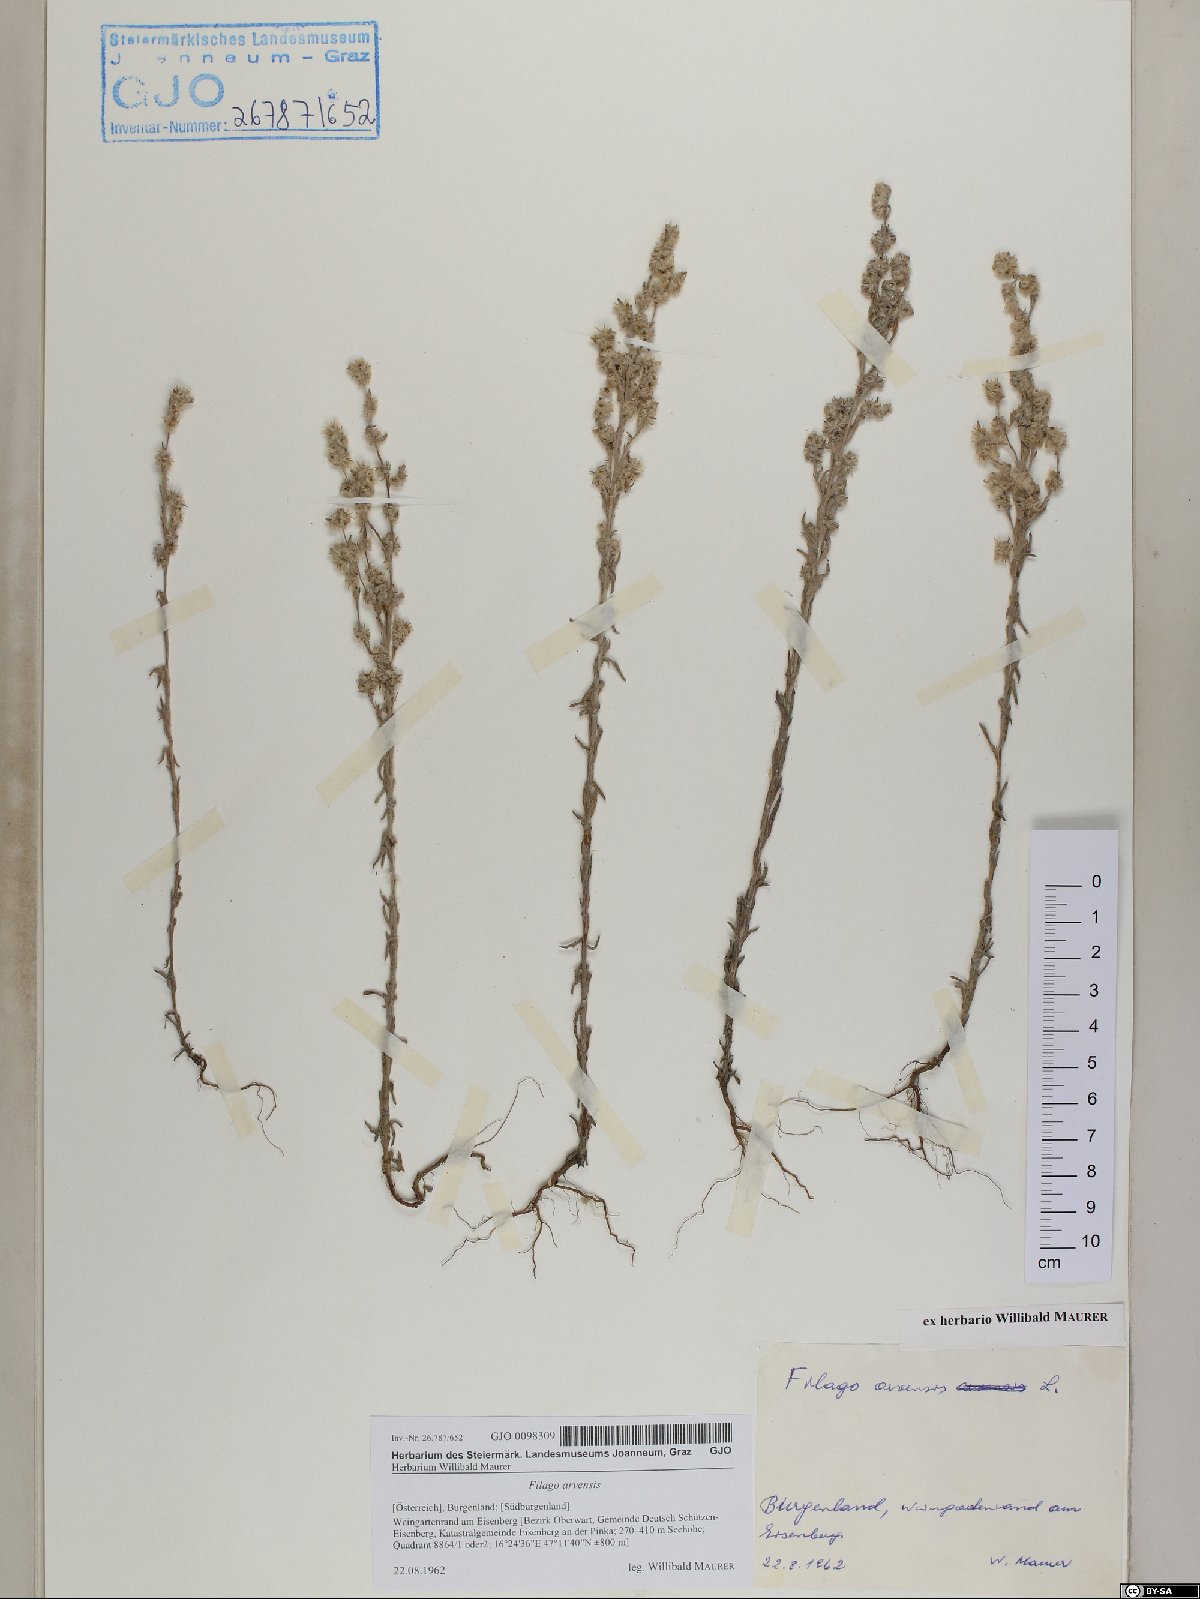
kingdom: Plantae
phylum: Tracheophyta
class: Magnoliopsida
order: Asterales
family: Asteraceae
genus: Filago
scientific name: Filago arvensis
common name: Field cudweed
